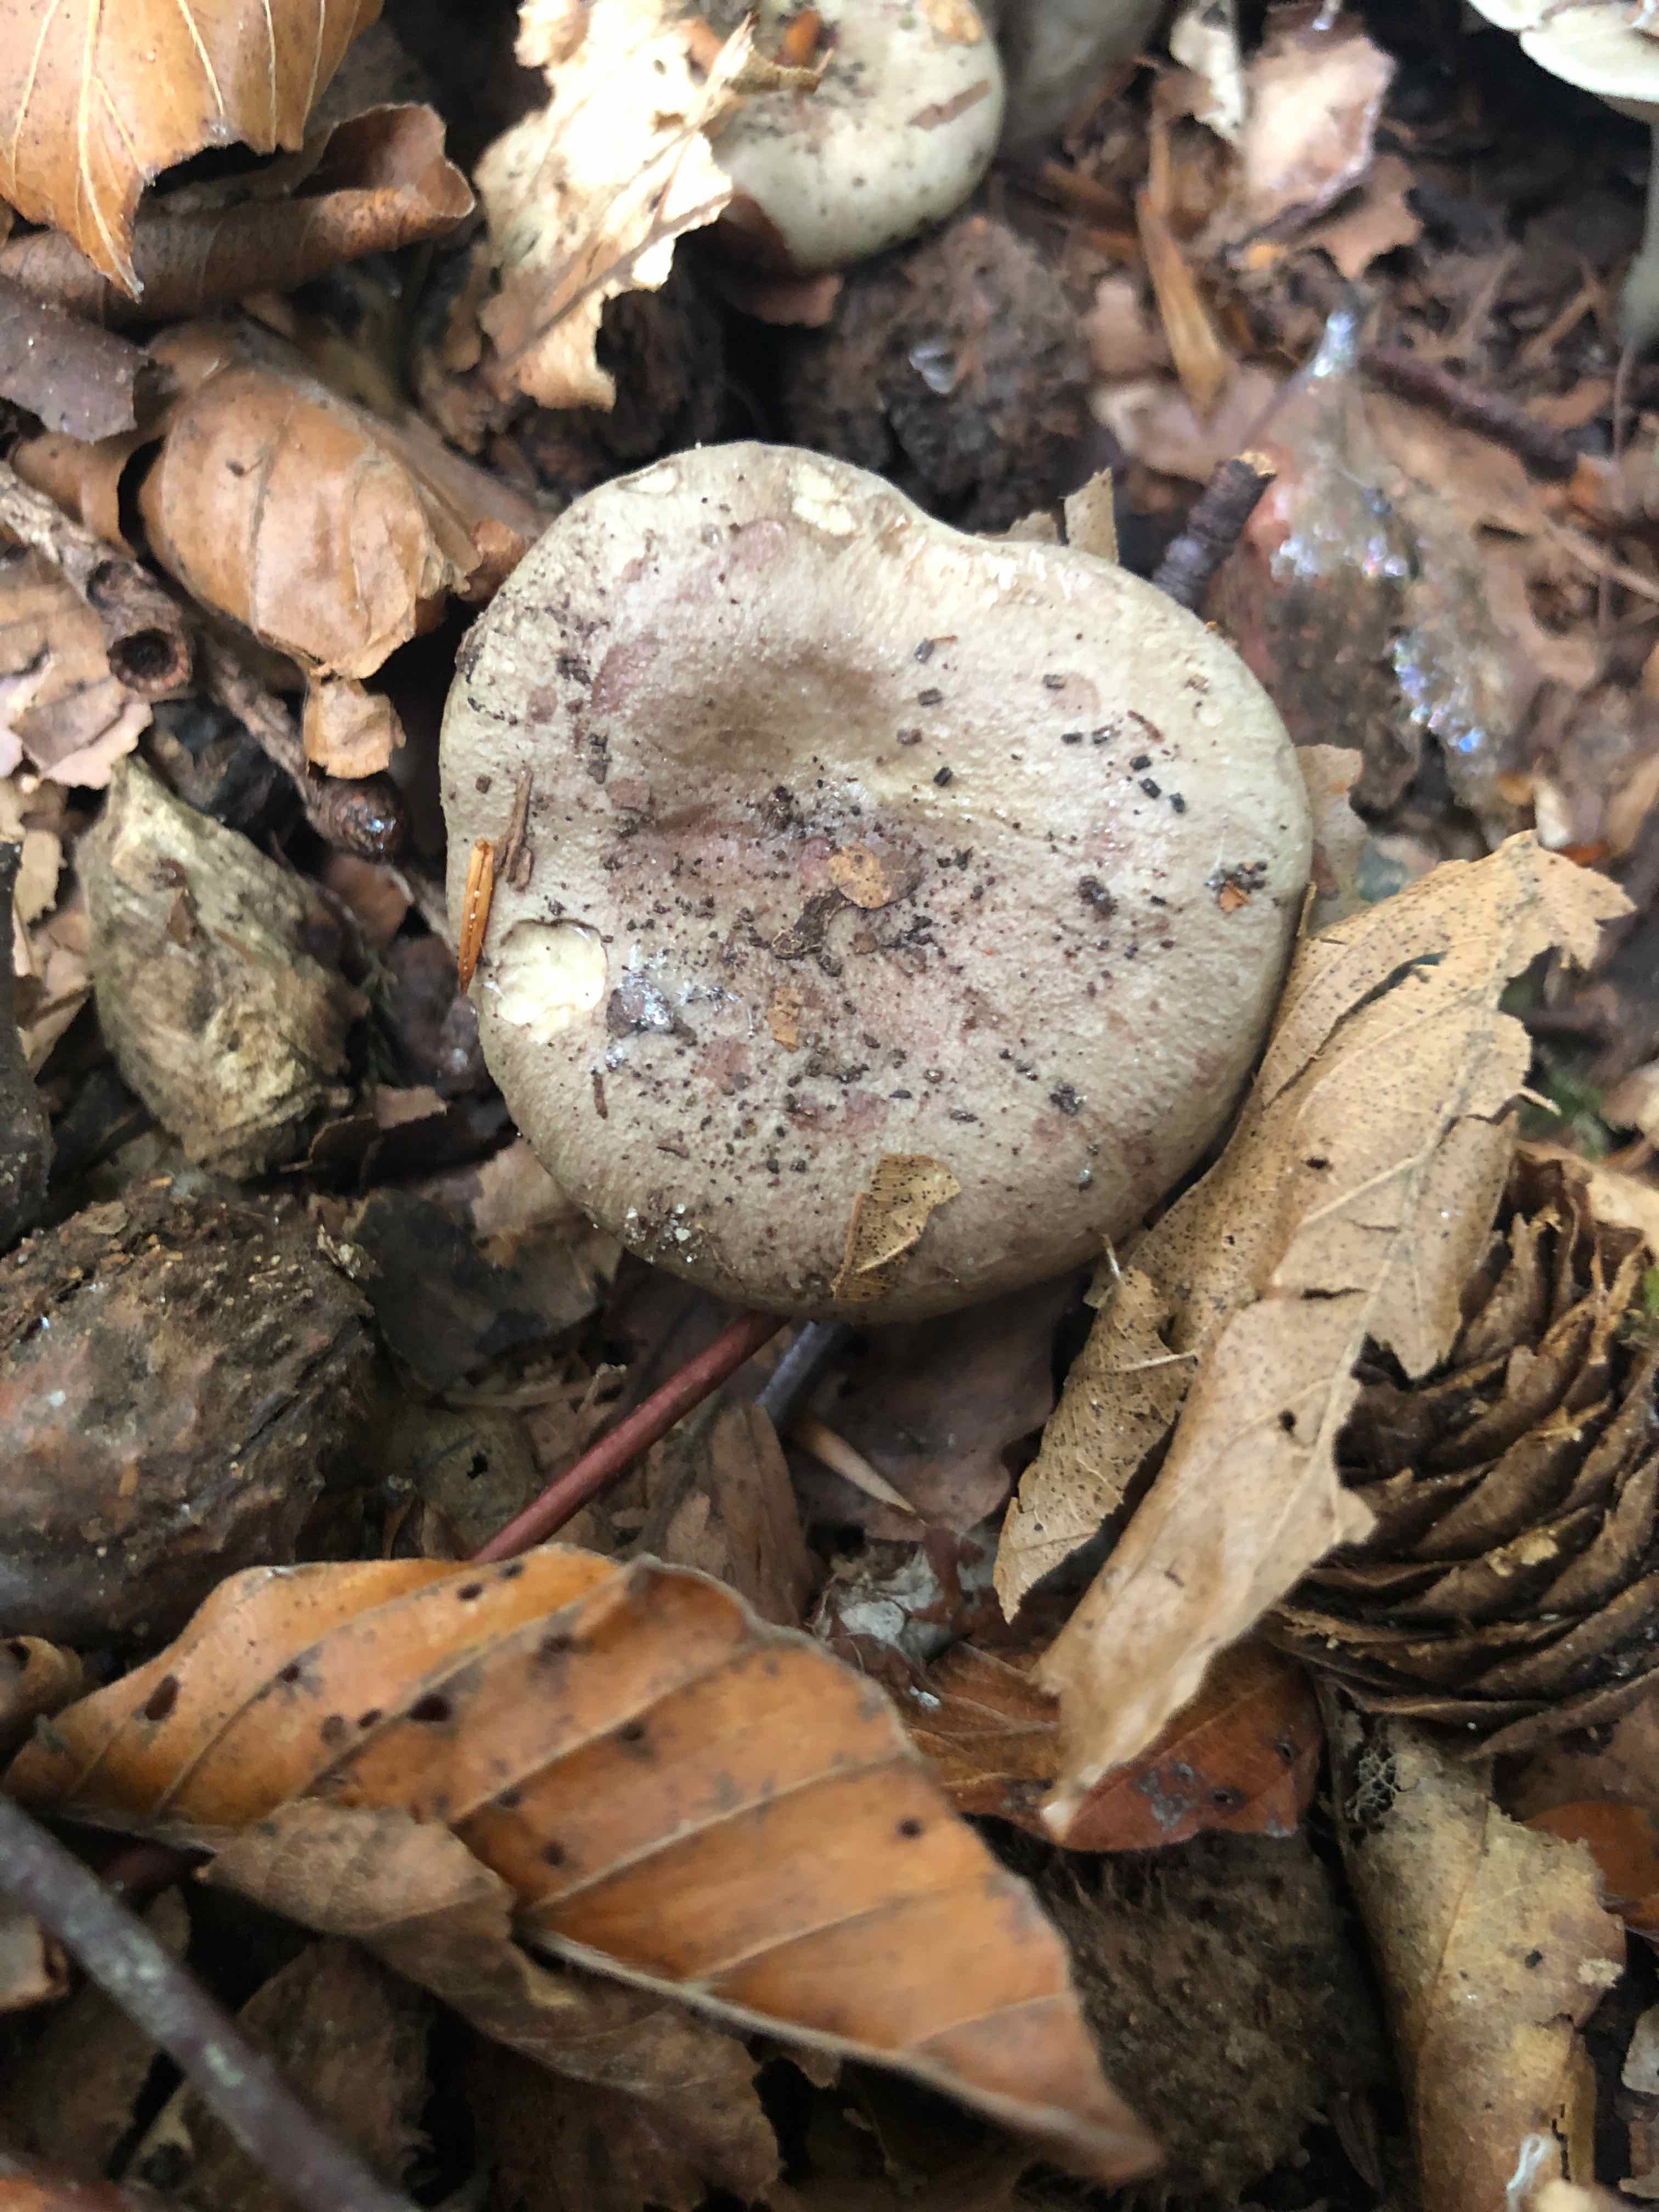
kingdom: Fungi
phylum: Basidiomycota
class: Agaricomycetes
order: Russulales
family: Russulaceae
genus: Lactarius
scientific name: Lactarius blennius
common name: dråbeplettet mælkehat
